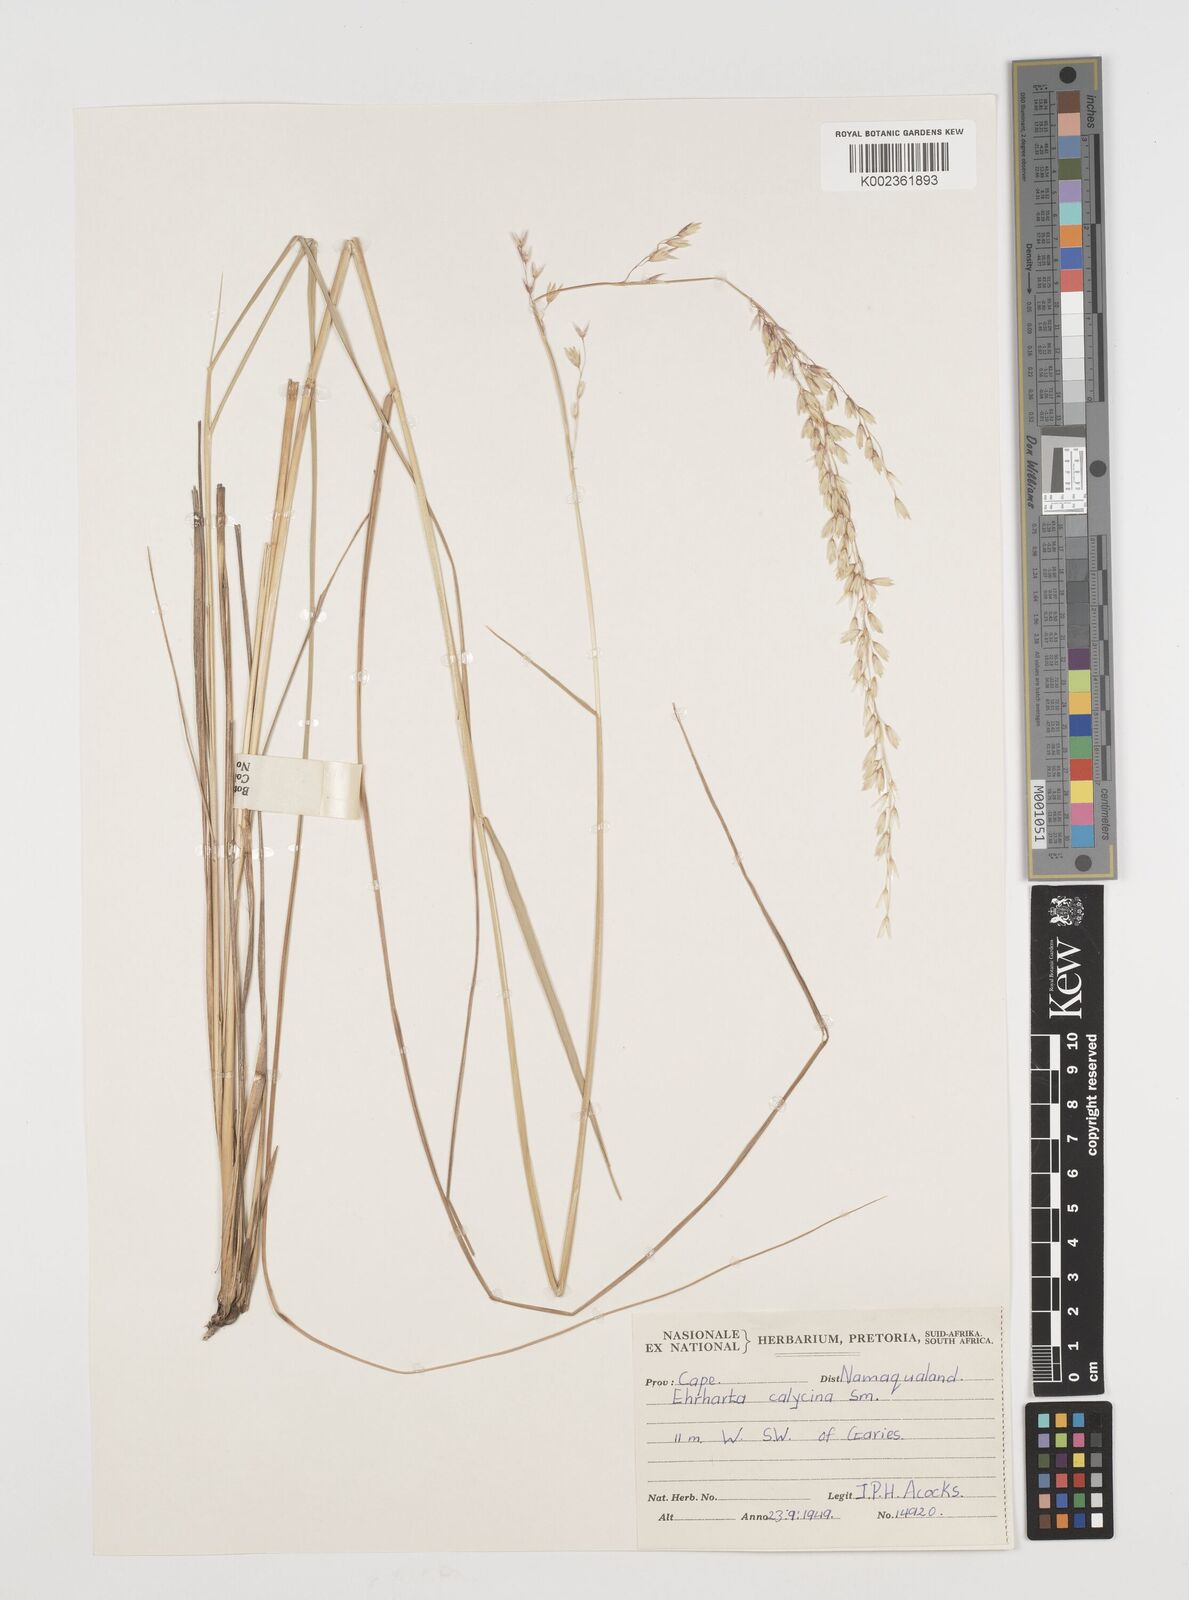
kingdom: Plantae
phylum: Tracheophyta
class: Liliopsida
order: Poales
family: Poaceae
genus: Ehrharta
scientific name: Ehrharta calycina
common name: Perennial veldtgrass
